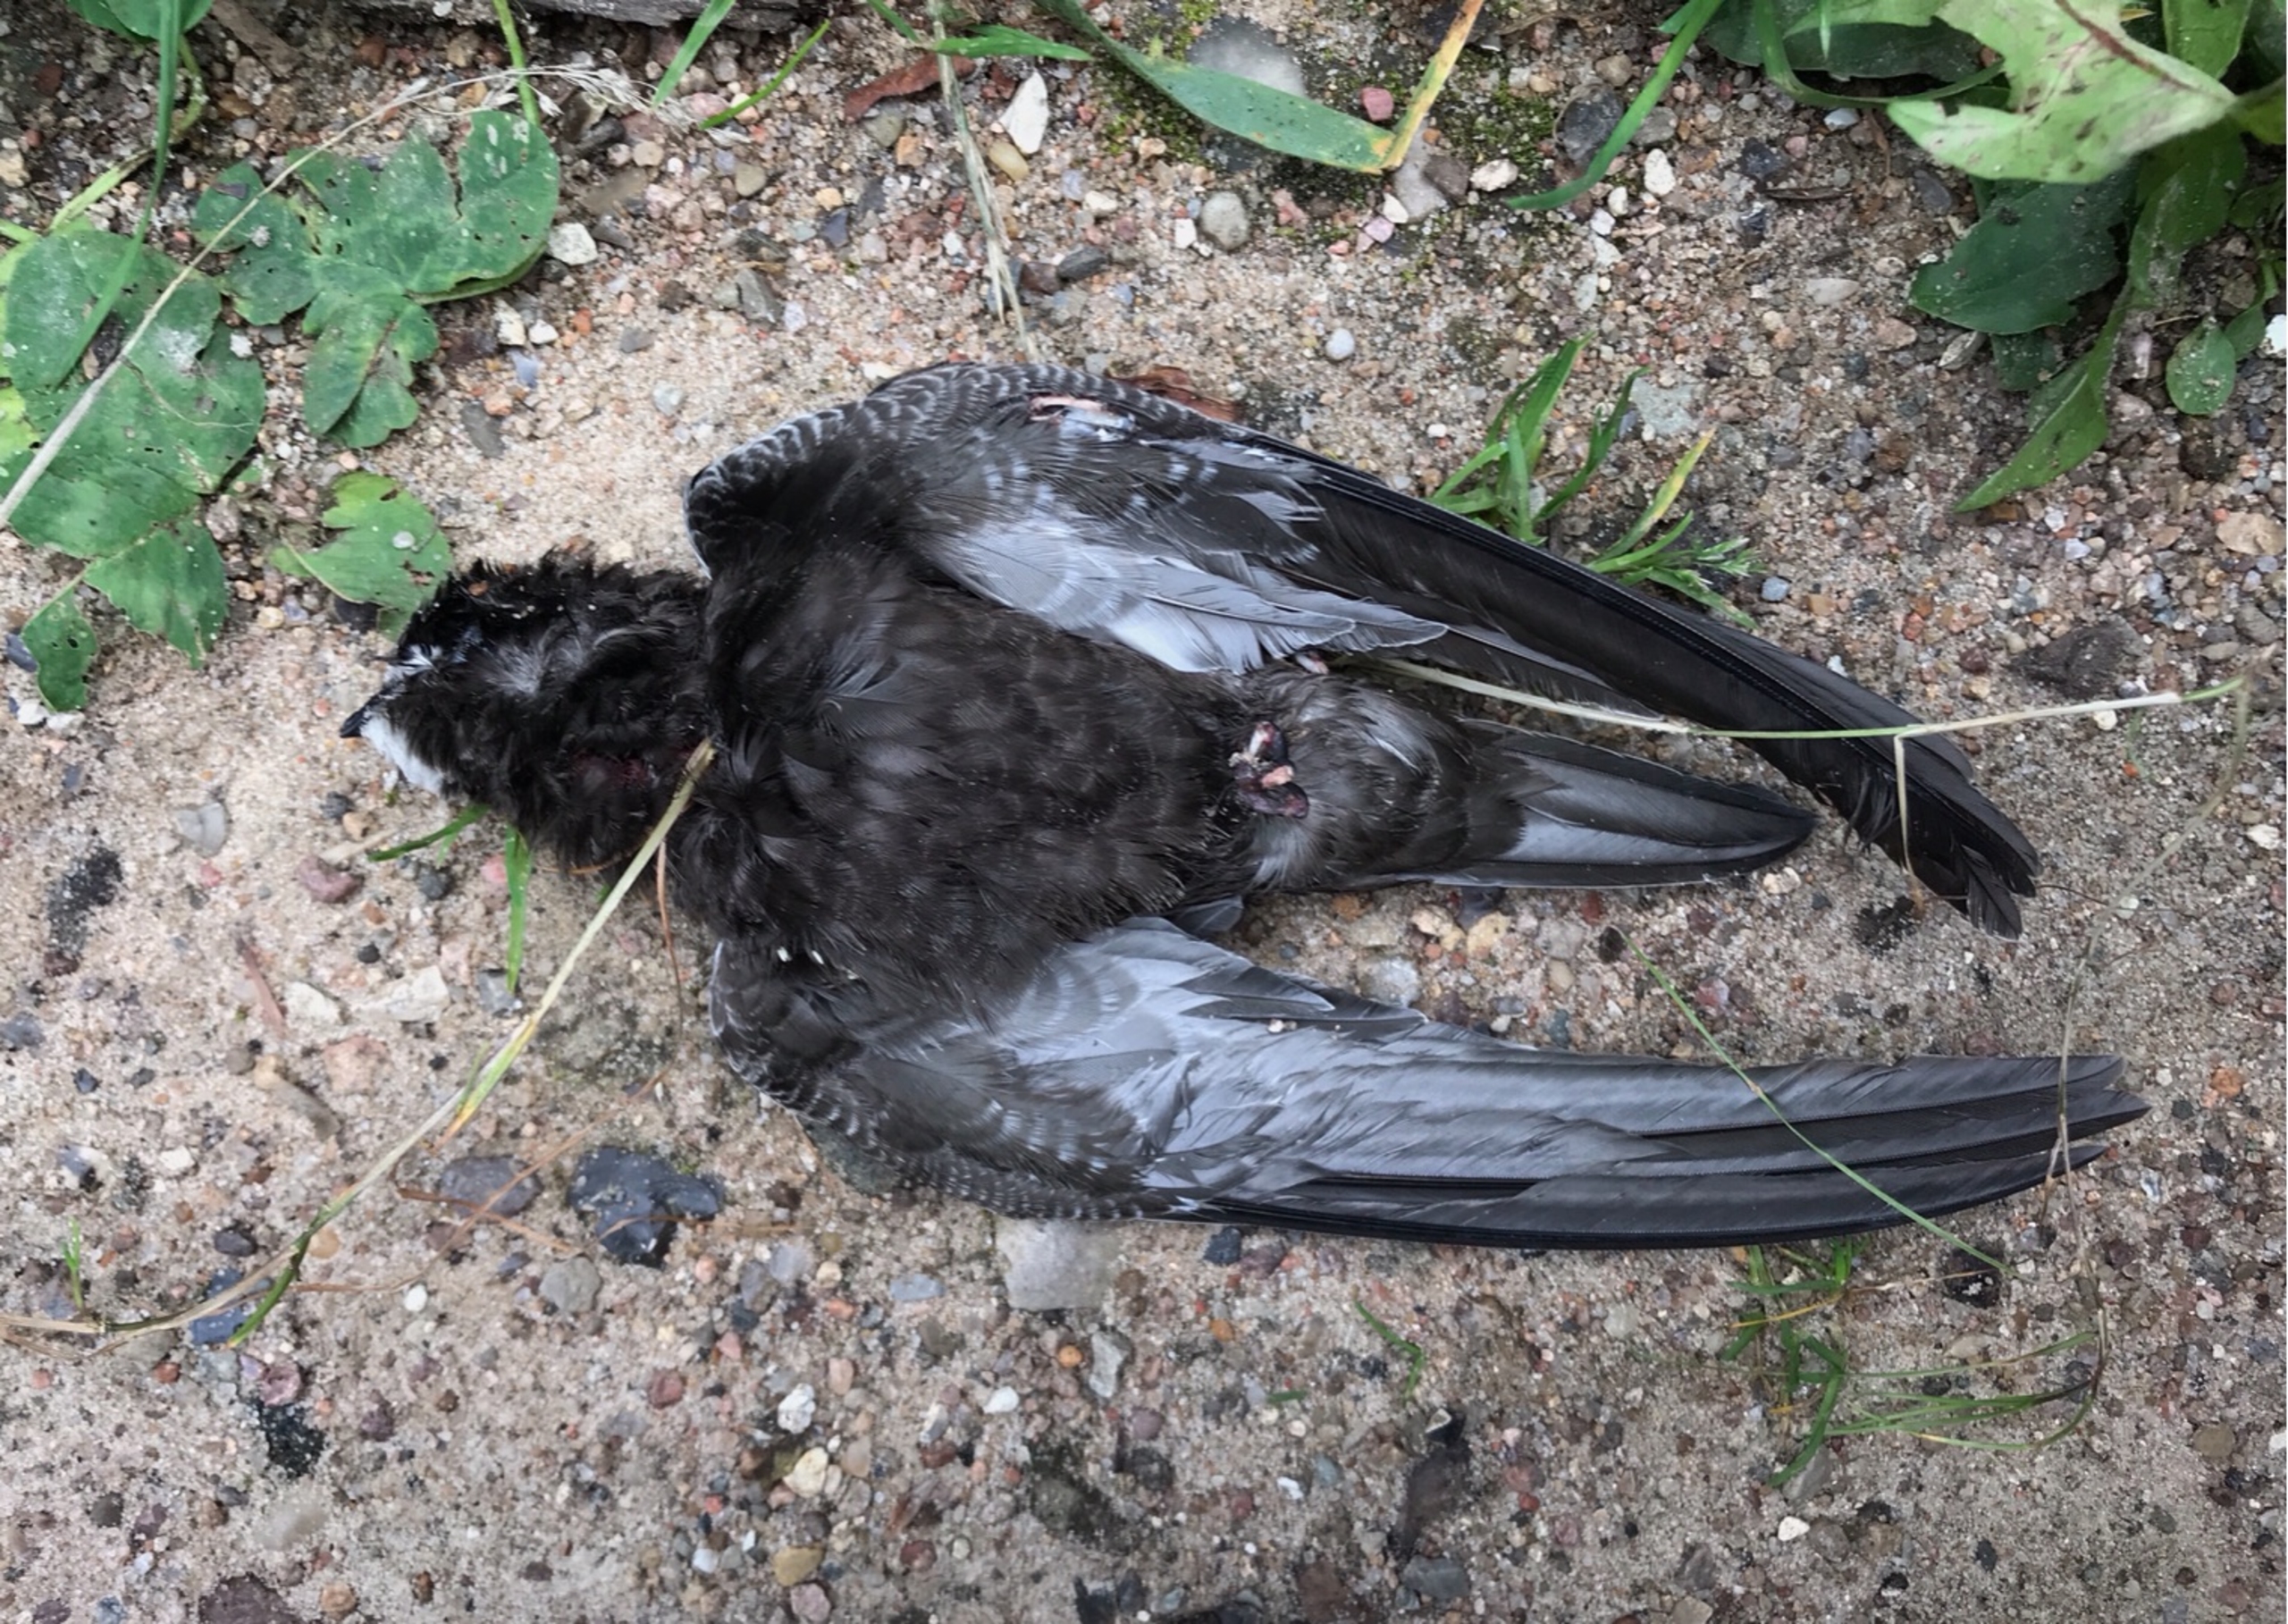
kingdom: Animalia
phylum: Chordata
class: Aves
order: Apodiformes
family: Apodidae
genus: Apus
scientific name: Apus apus
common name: Mursejler
